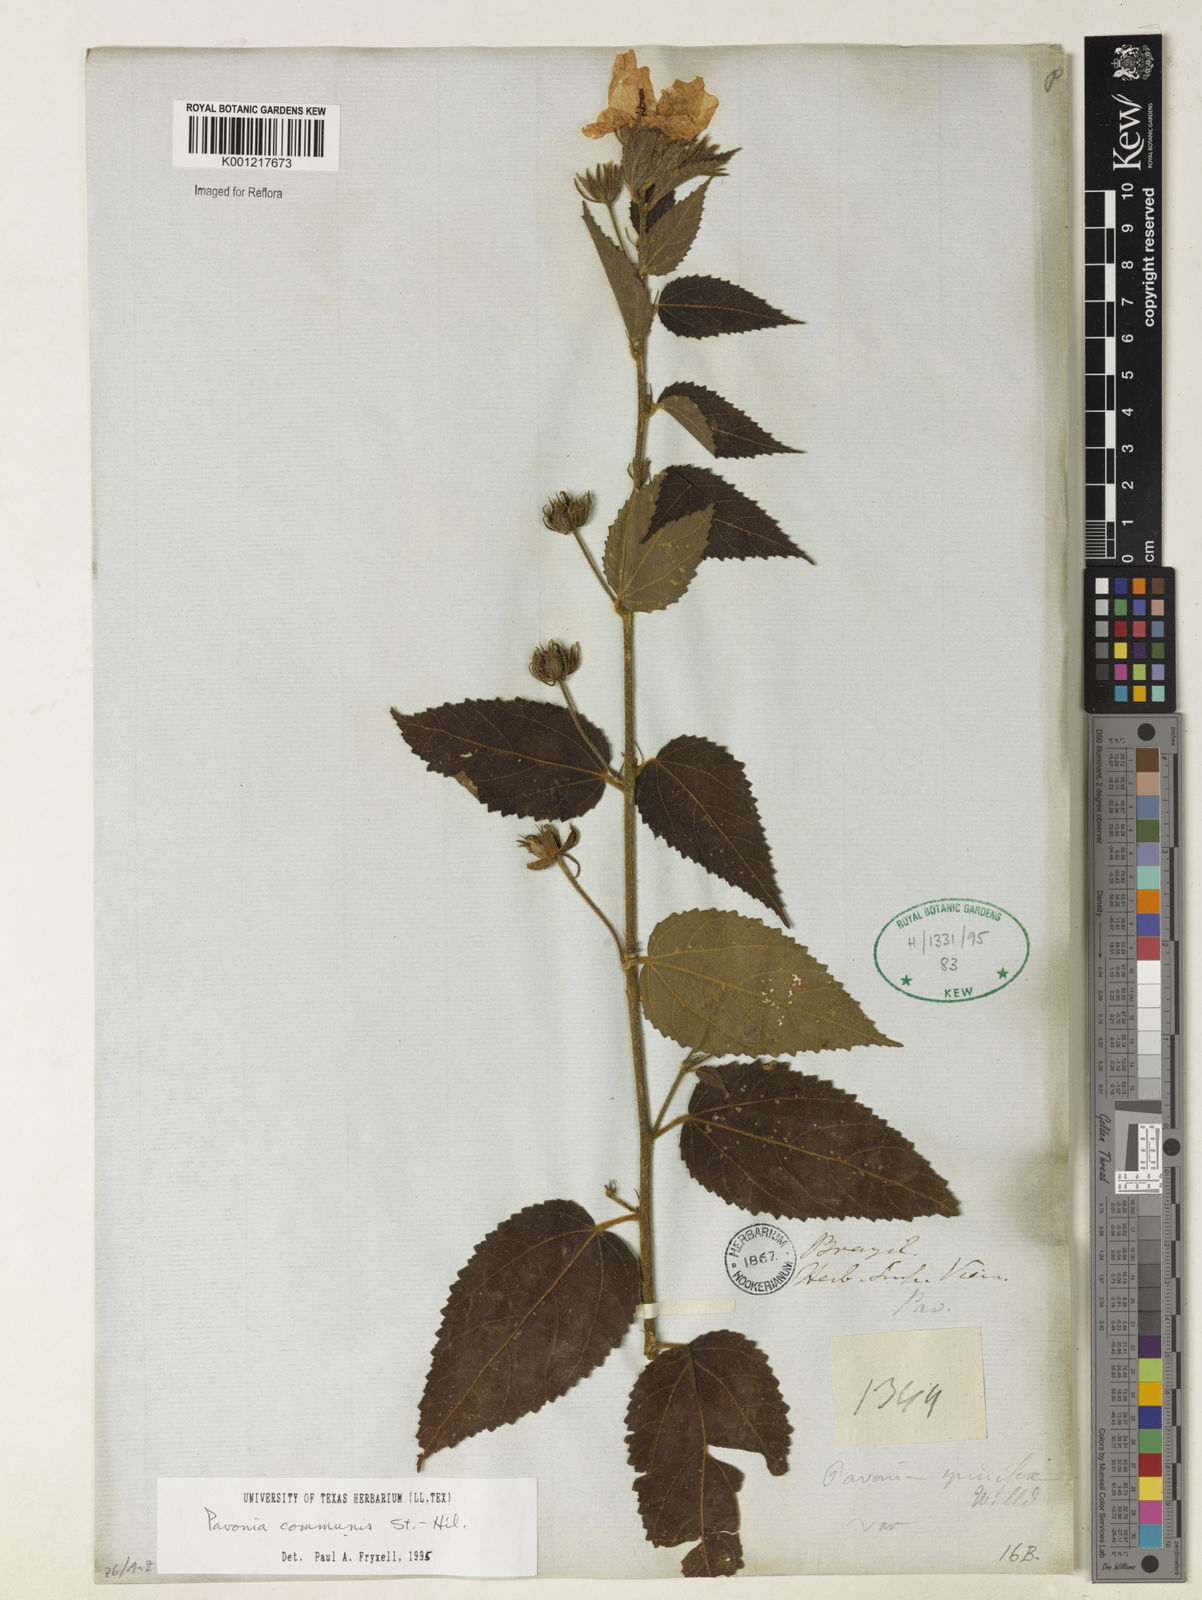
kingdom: Plantae
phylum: Tracheophyta
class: Magnoliopsida
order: Malvales
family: Malvaceae
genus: Pavonia
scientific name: Pavonia communis
